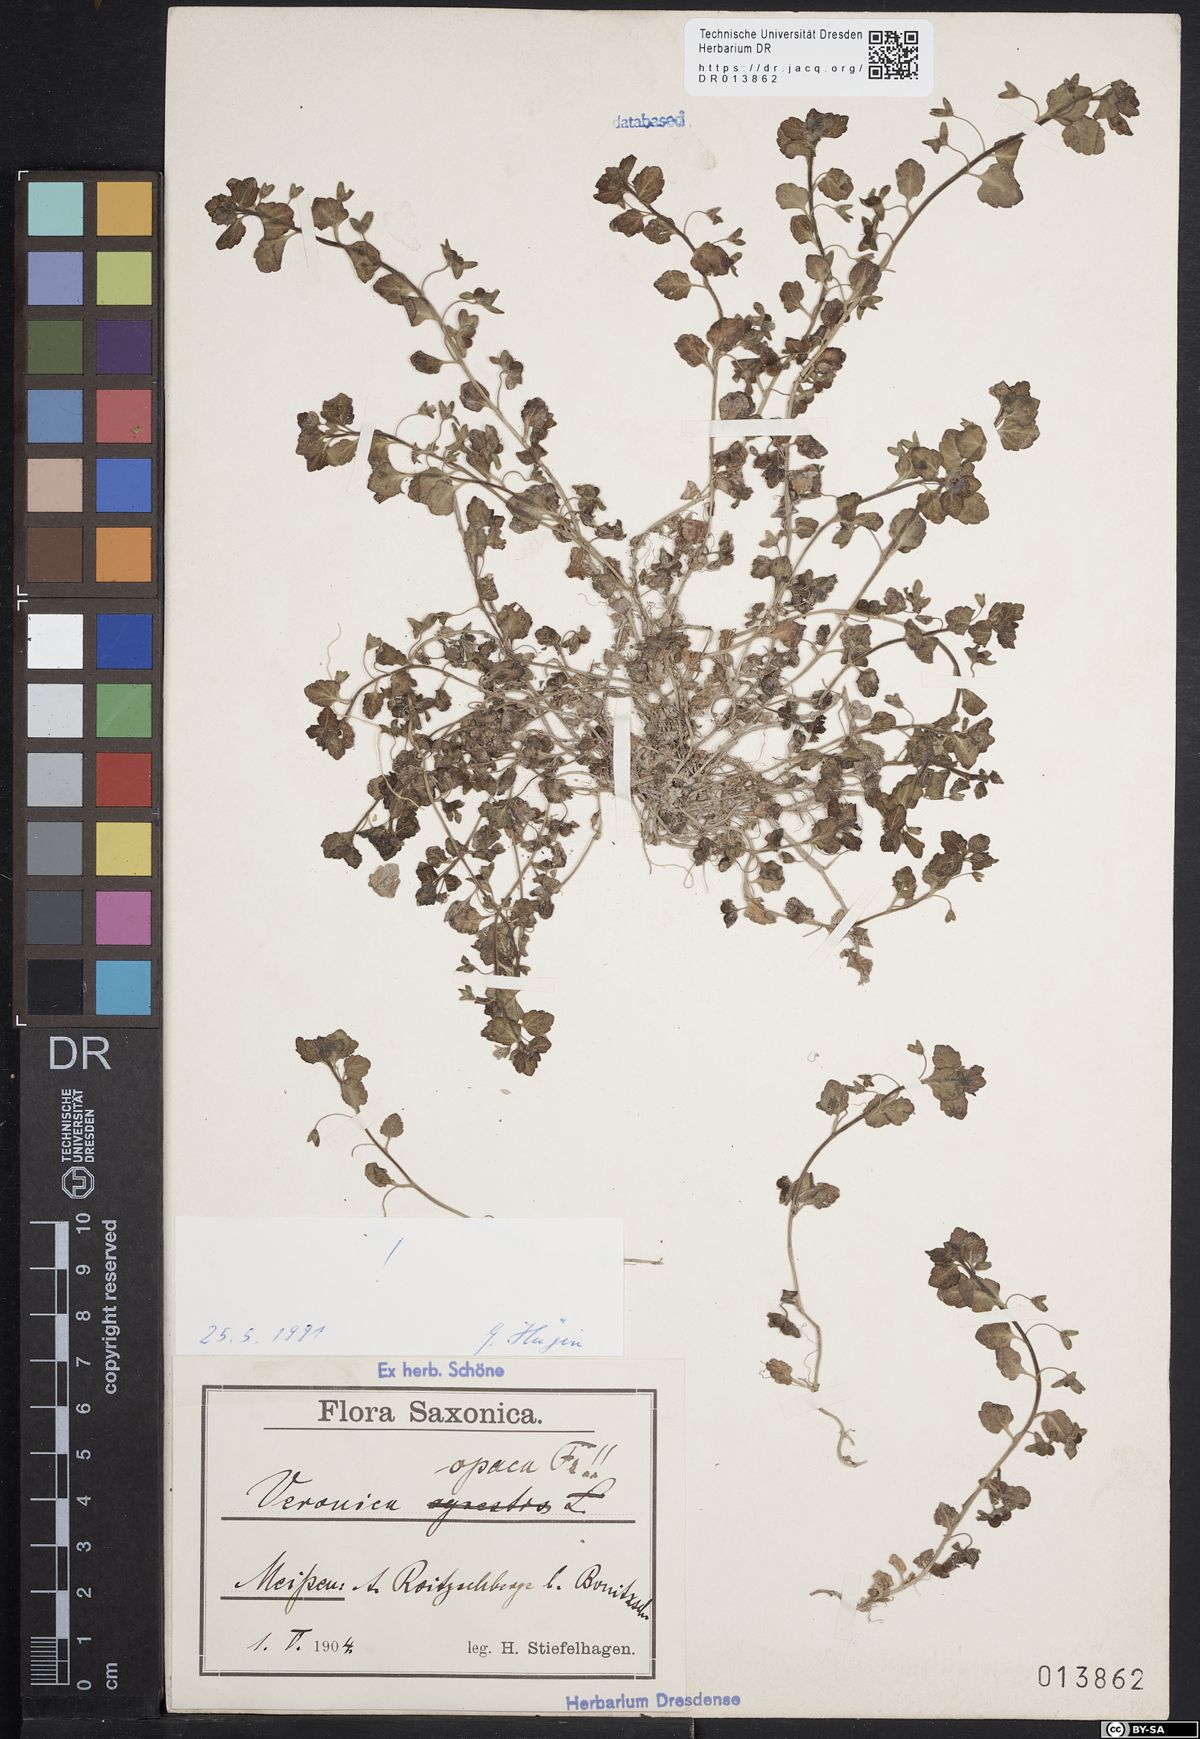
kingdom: Plantae
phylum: Tracheophyta
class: Magnoliopsida
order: Lamiales
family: Plantaginaceae
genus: Veronica
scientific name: Veronica opaca
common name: Dark speedwell
